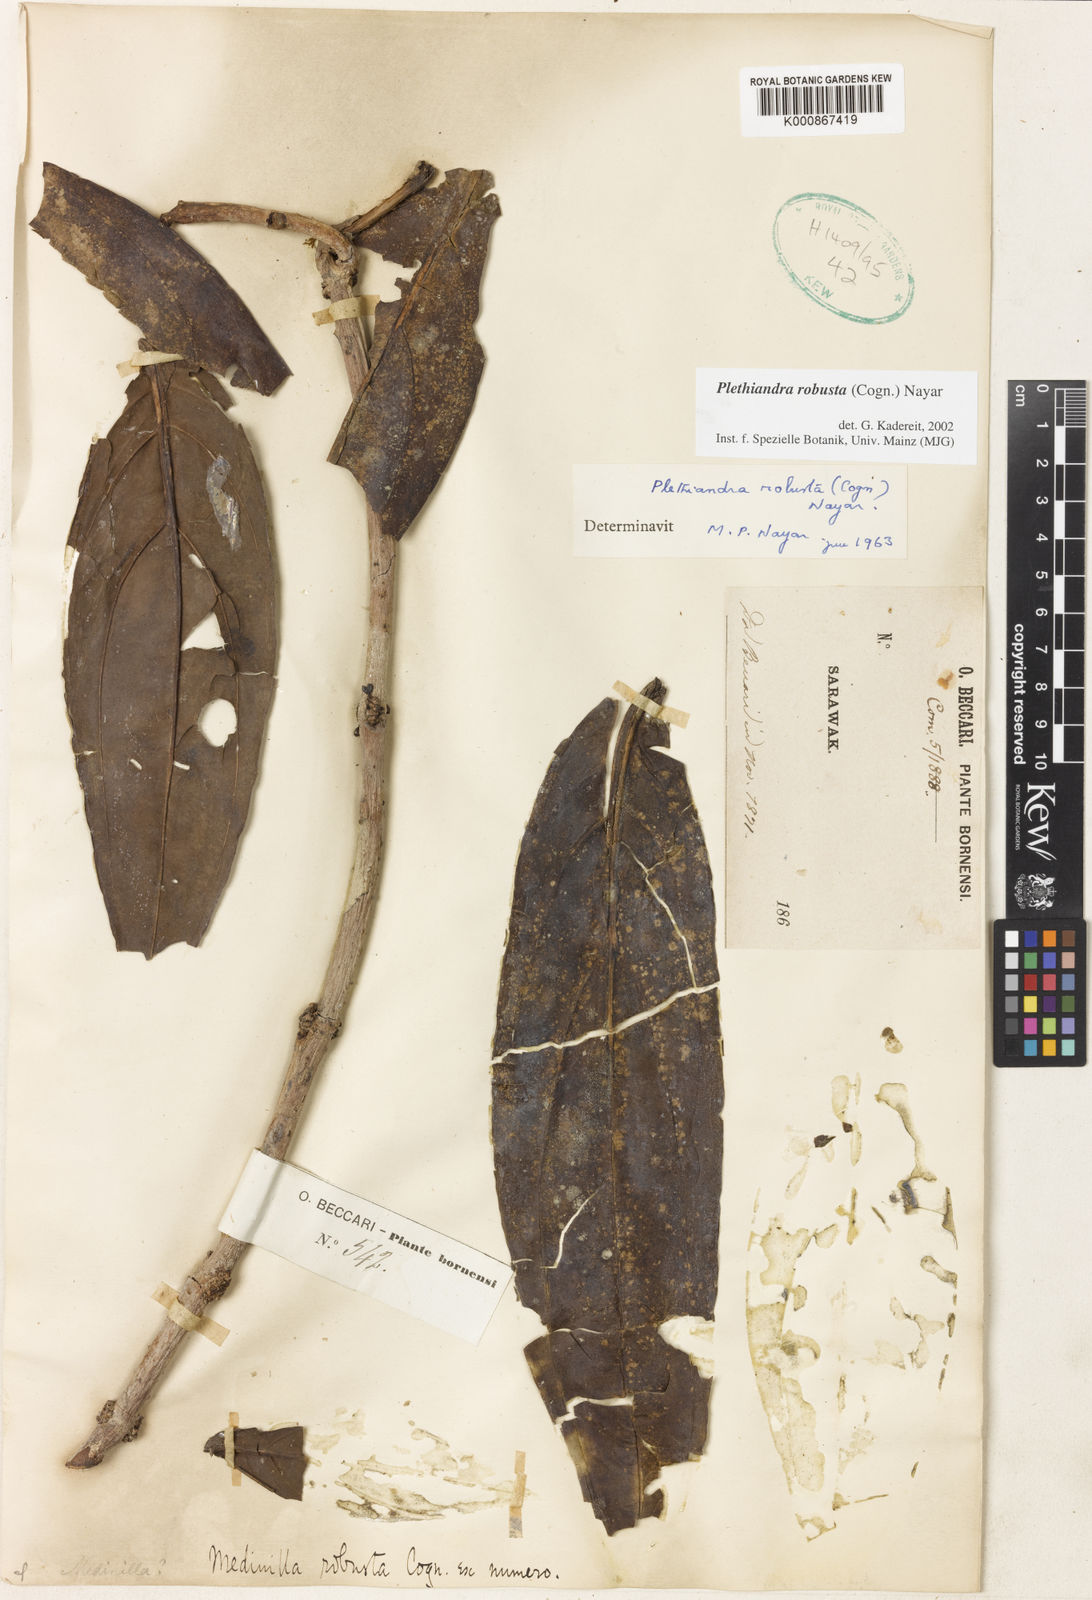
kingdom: Plantae
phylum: Tracheophyta
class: Magnoliopsida
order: Myrtales
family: Melastomataceae
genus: Plethiandra
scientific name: Plethiandra robusta
